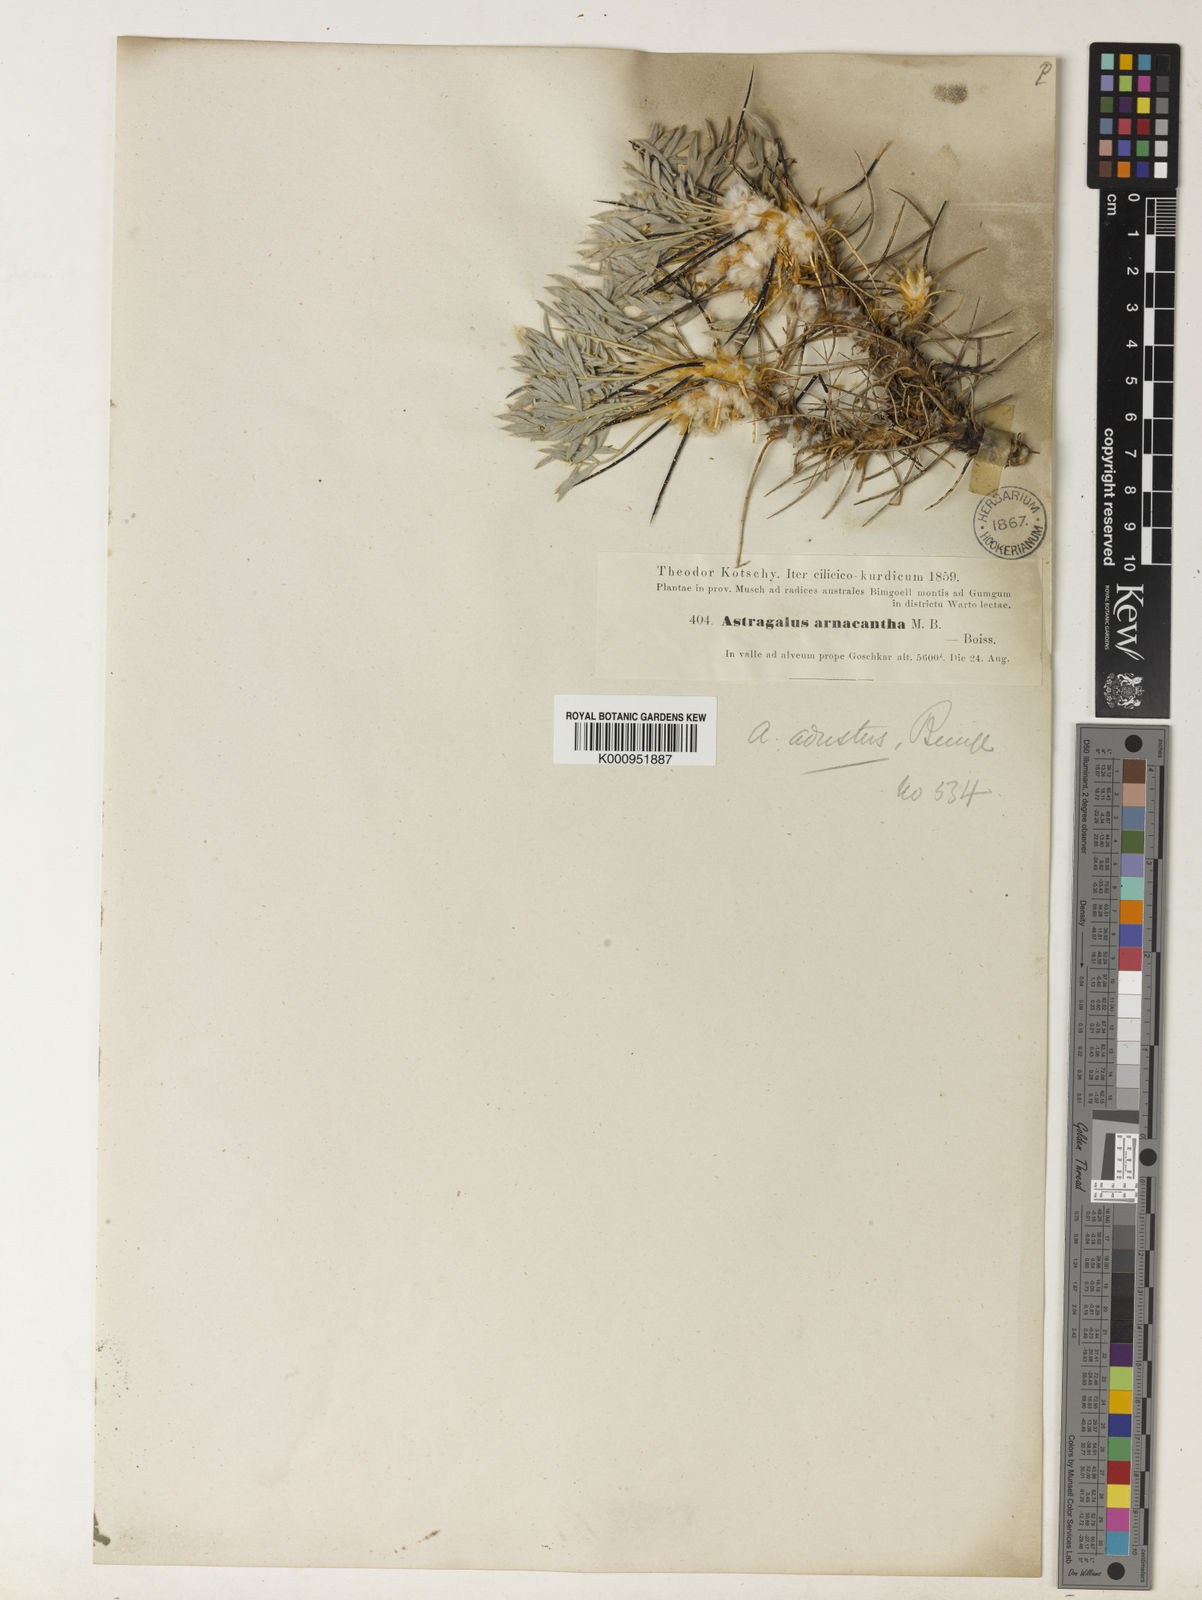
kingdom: Plantae
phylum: Tracheophyta
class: Magnoliopsida
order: Fabales
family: Fabaceae
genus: Astragalus
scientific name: Astragalus microcephalus
